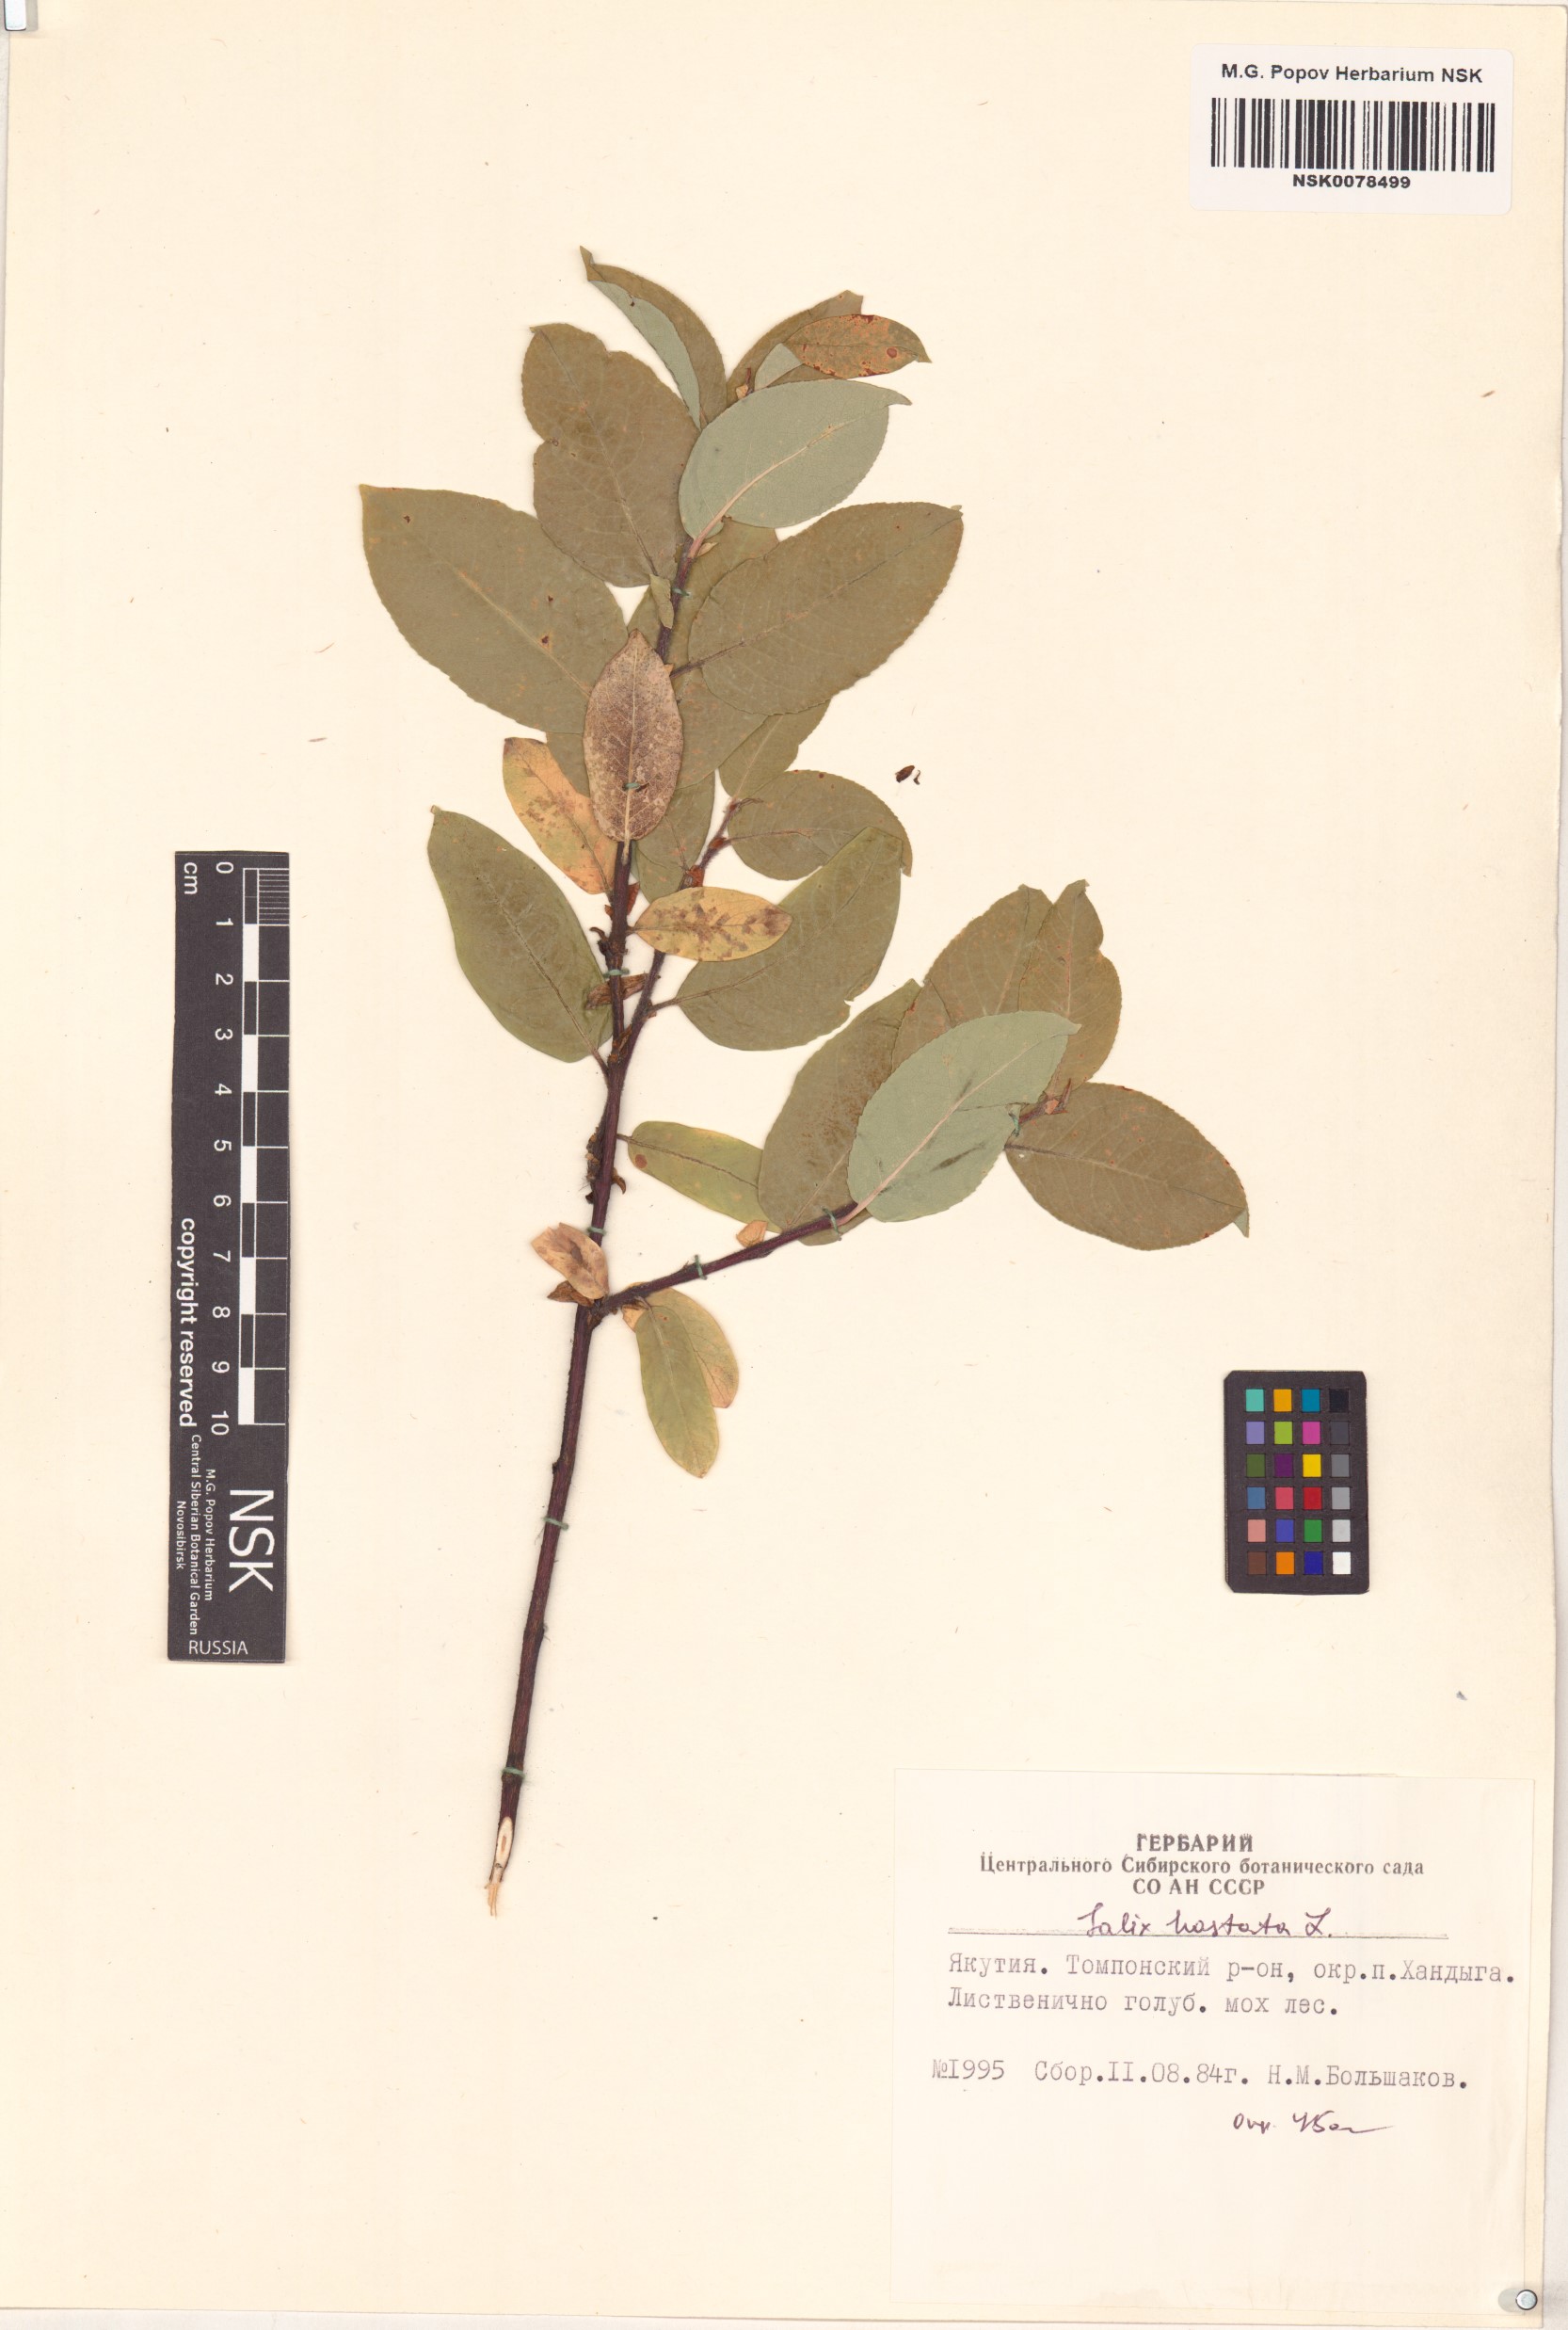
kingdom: Plantae
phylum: Tracheophyta
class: Magnoliopsida
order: Malpighiales
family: Salicaceae
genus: Salix
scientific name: Salix hastata
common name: Halberd willow
